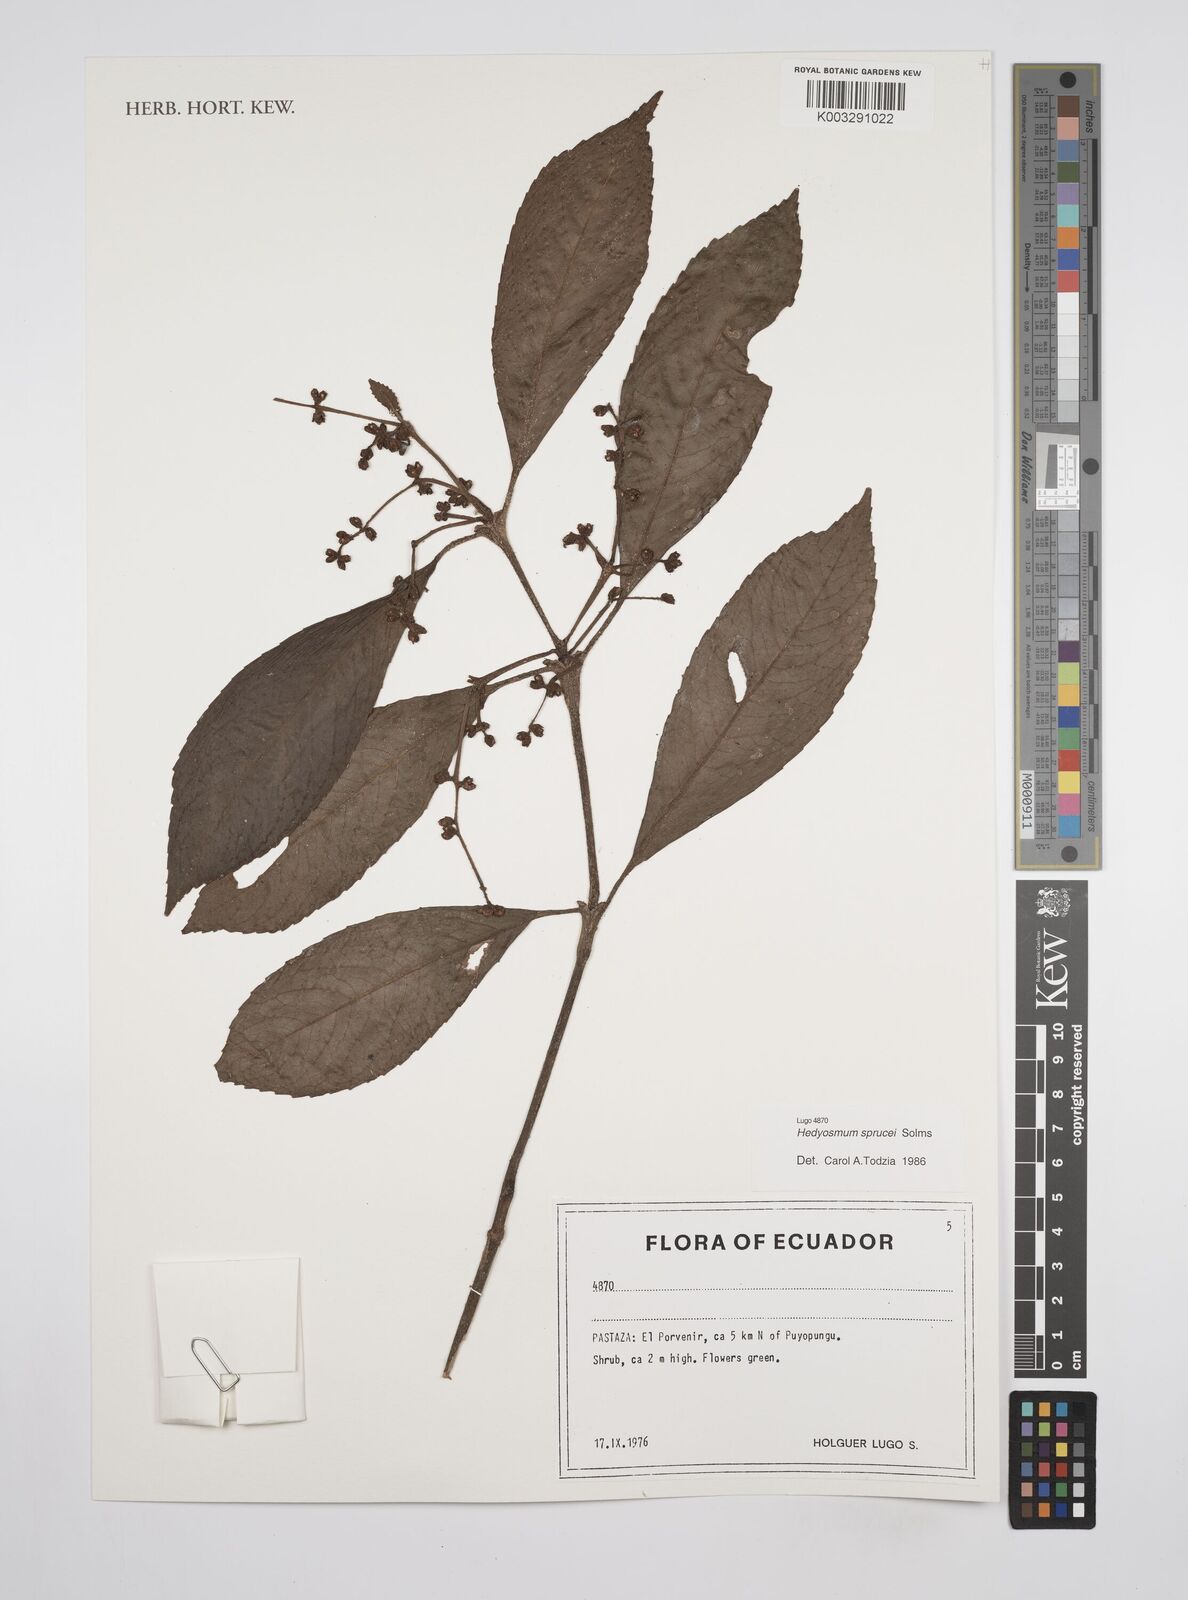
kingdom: Plantae
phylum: Tracheophyta
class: Magnoliopsida
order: Chloranthales
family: Chloranthaceae
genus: Hedyosmum
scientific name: Hedyosmum sprucei
